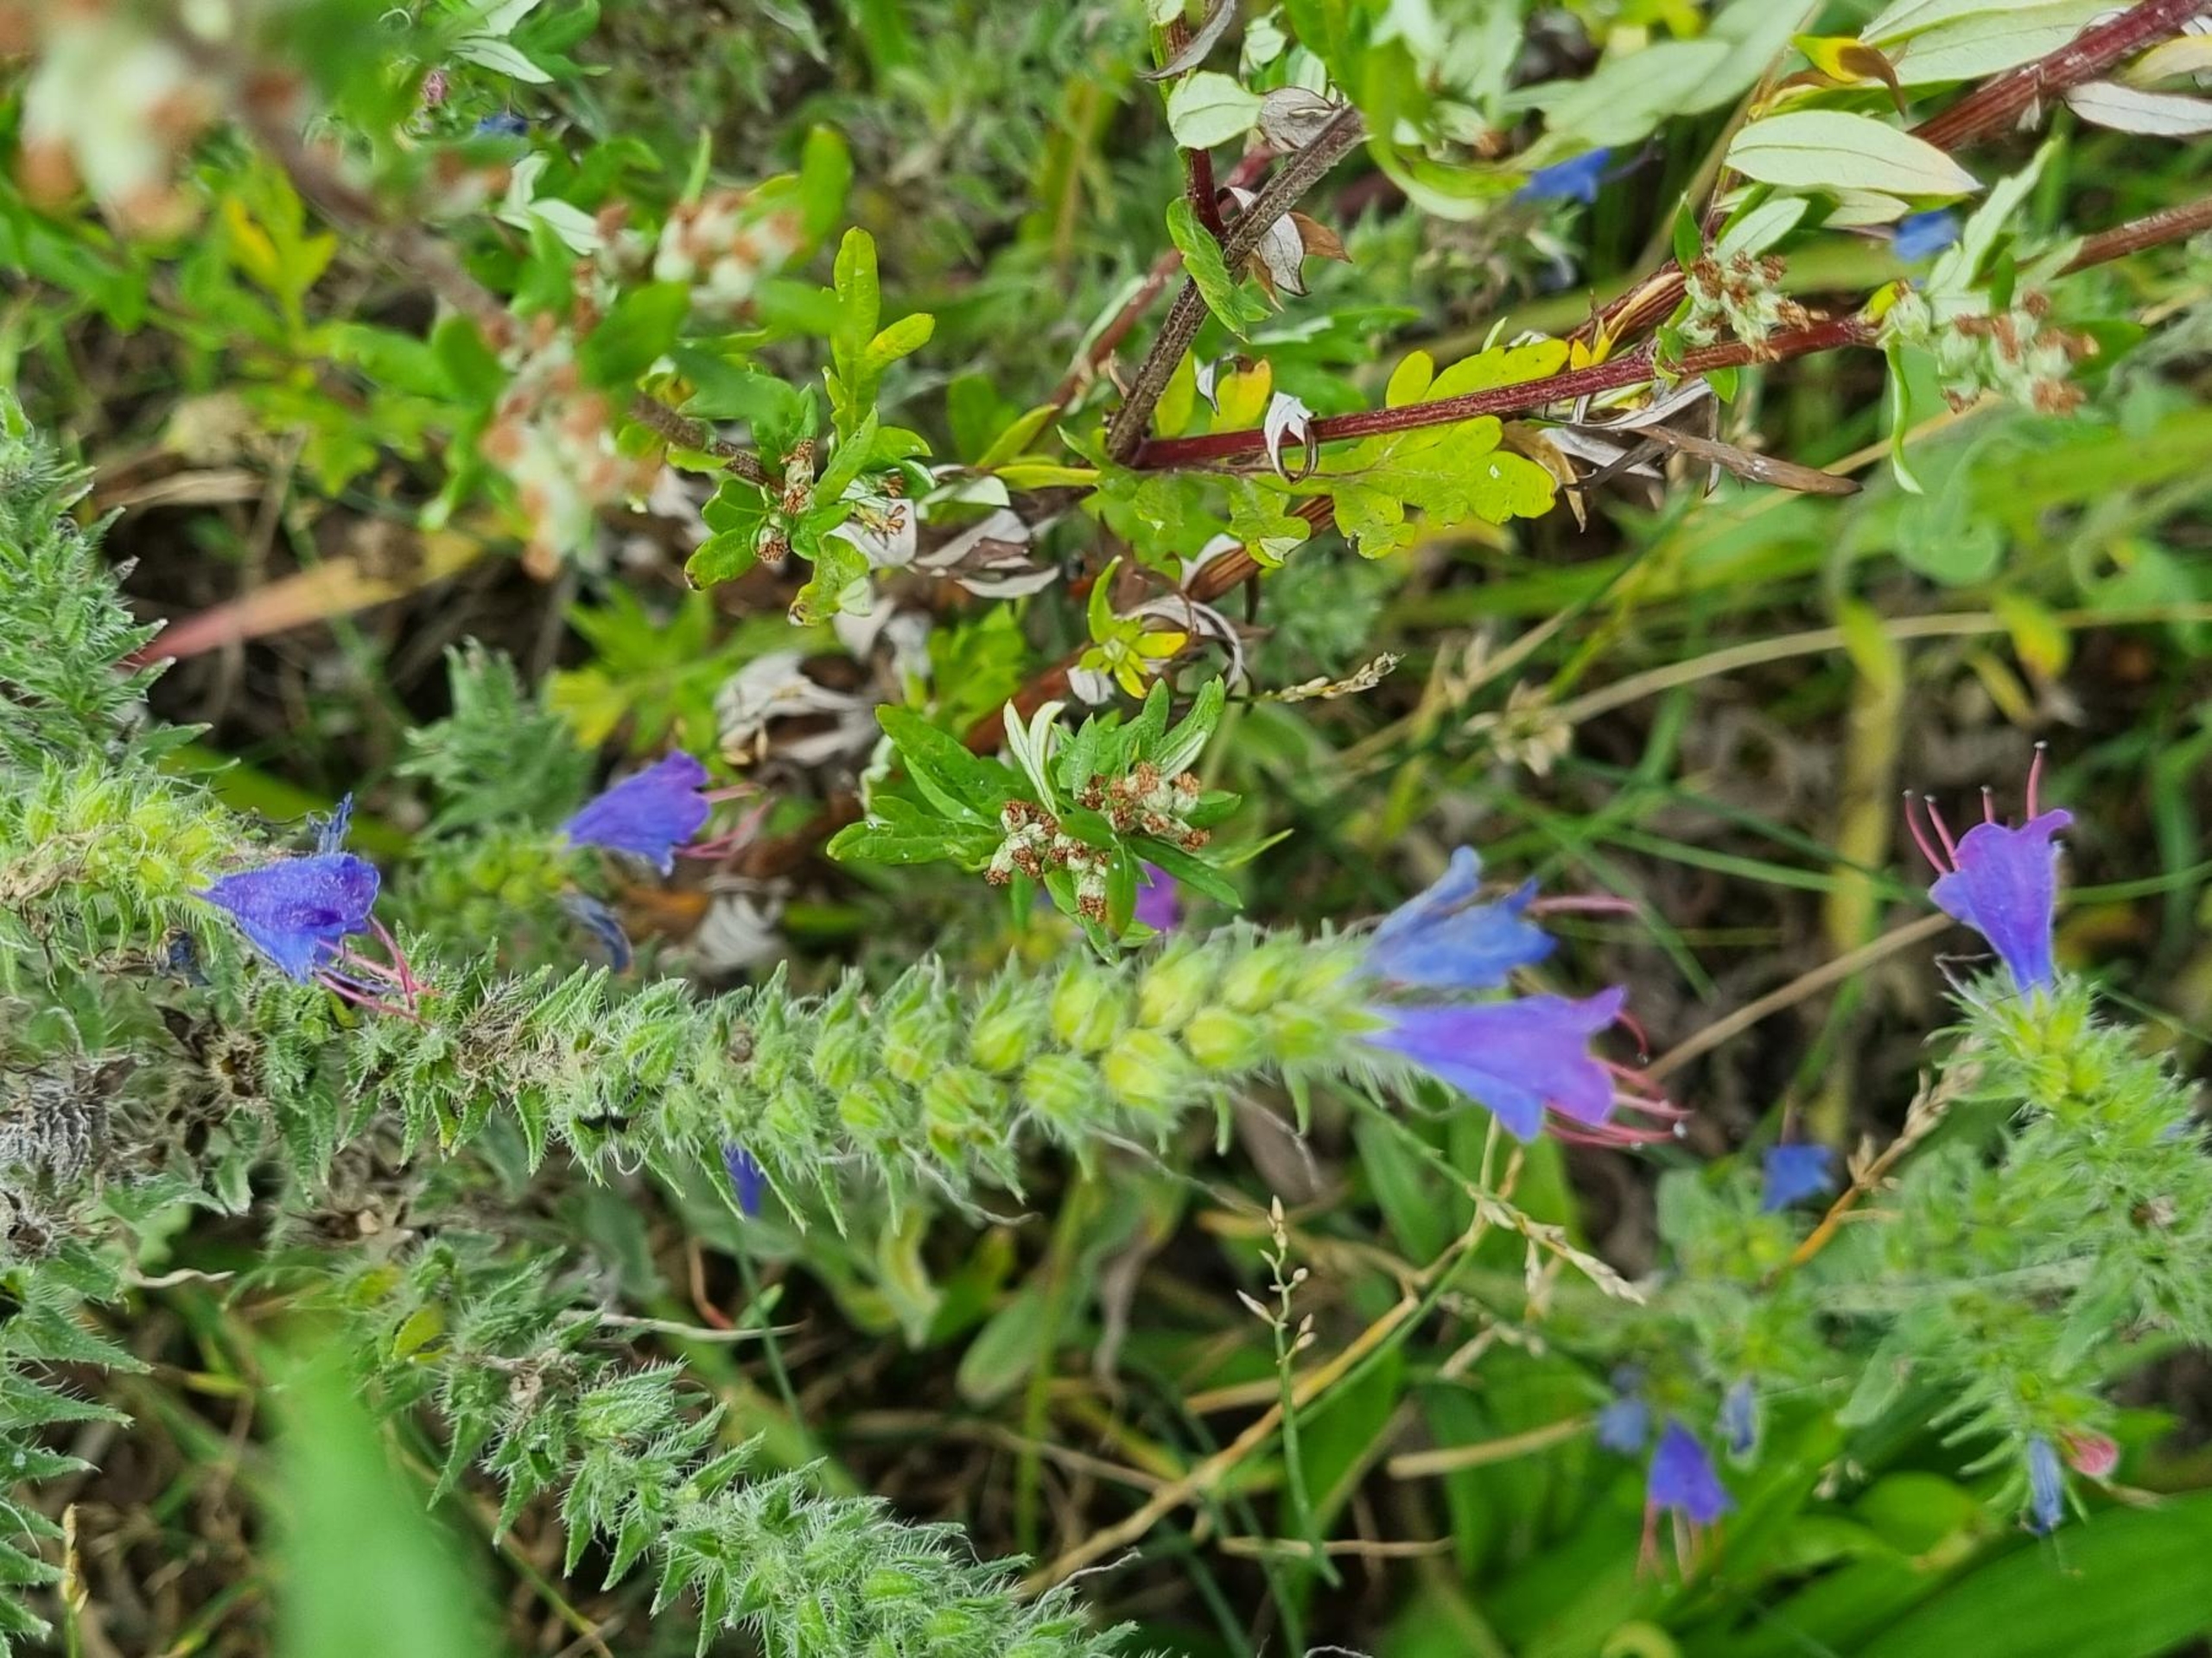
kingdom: Plantae
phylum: Tracheophyta
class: Magnoliopsida
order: Boraginales
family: Boraginaceae
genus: Echium
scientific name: Echium vulgare
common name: Slangehoved
